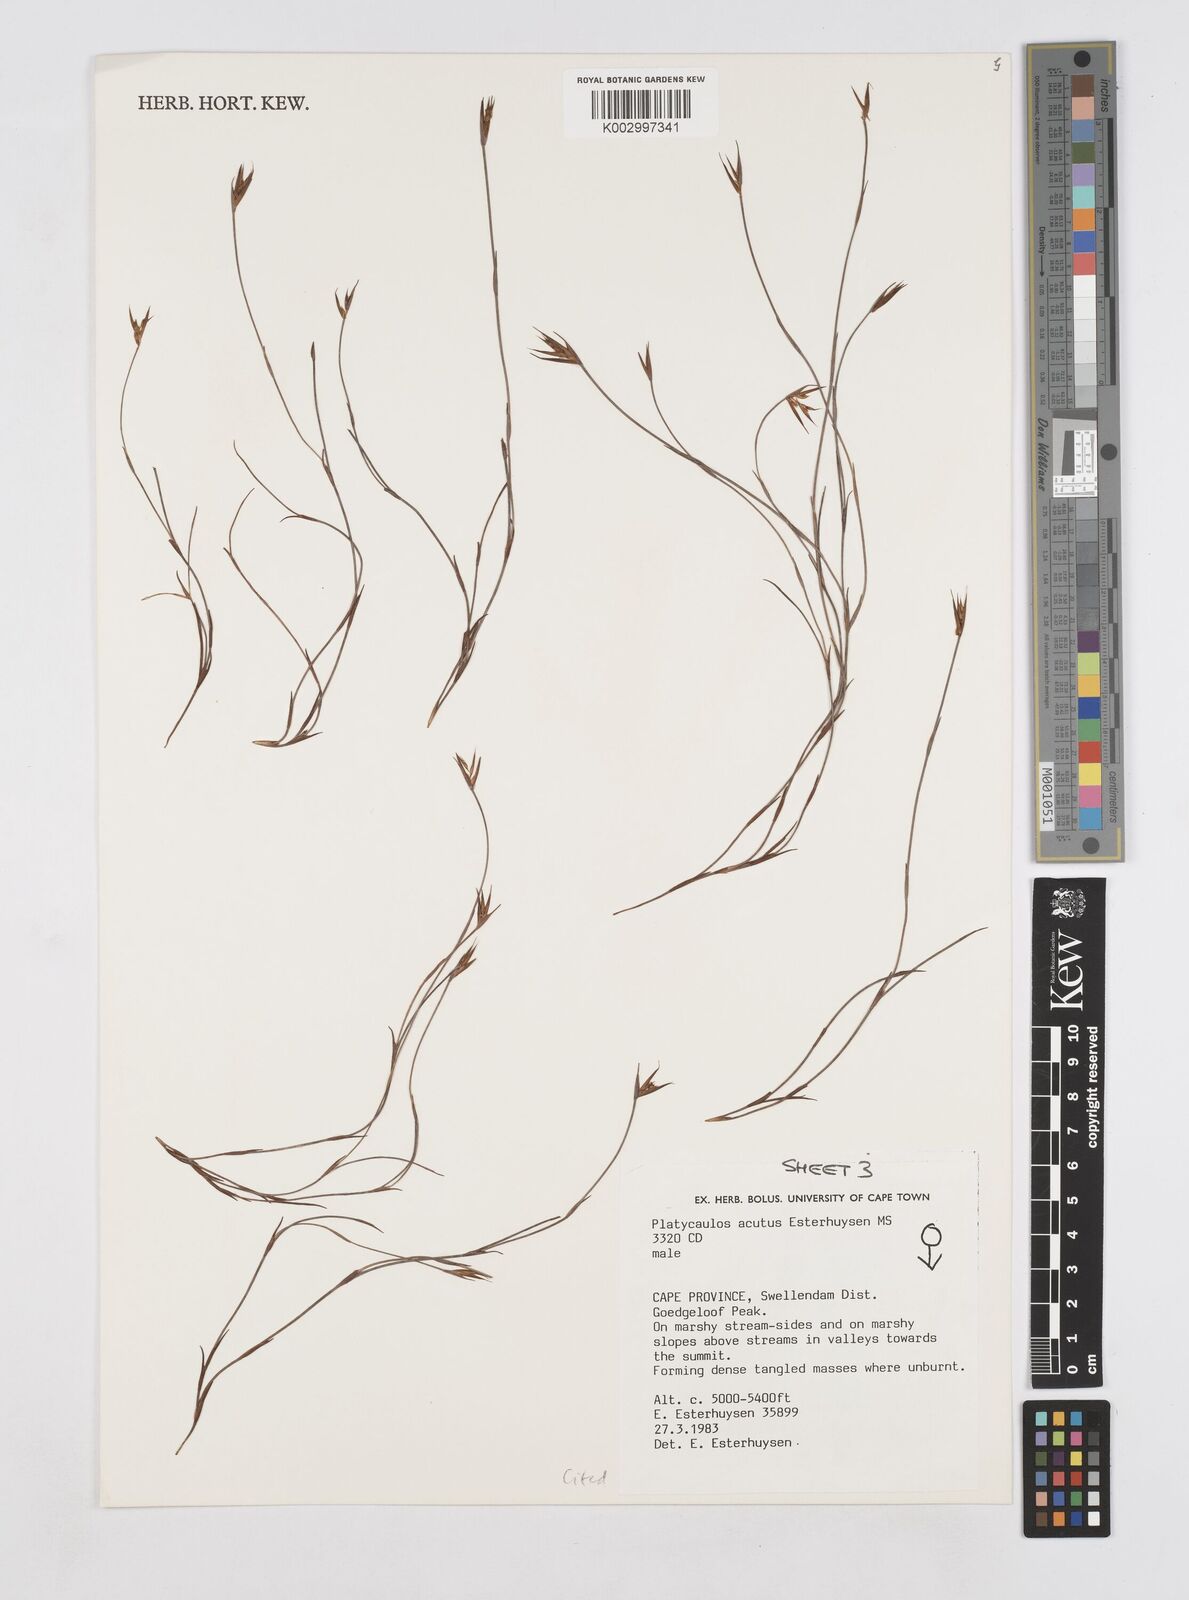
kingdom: Plantae
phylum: Tracheophyta
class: Liliopsida
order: Poales
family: Restionaceae
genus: Platycaulos
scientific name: Platycaulos acutus
